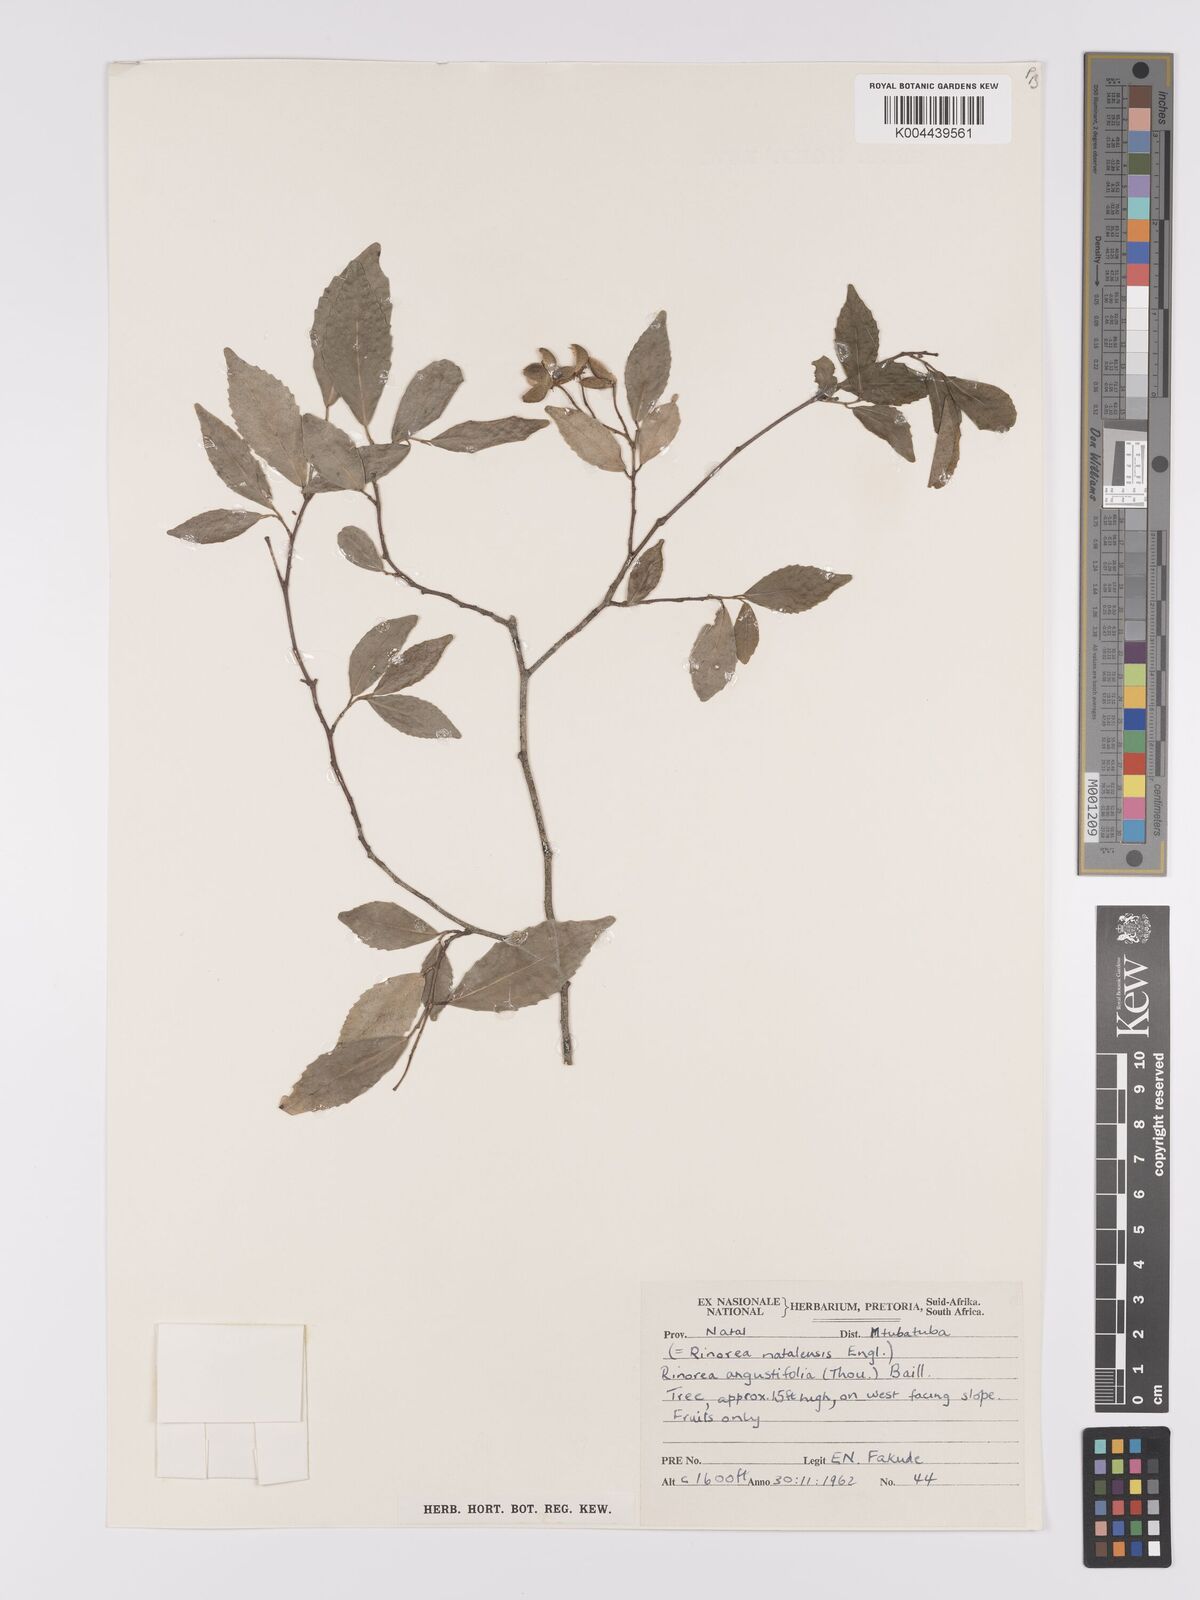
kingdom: Plantae
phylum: Tracheophyta
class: Magnoliopsida
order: Malpighiales
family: Violaceae
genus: Rinorea
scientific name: Rinorea angustifolia
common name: White violet-bush
